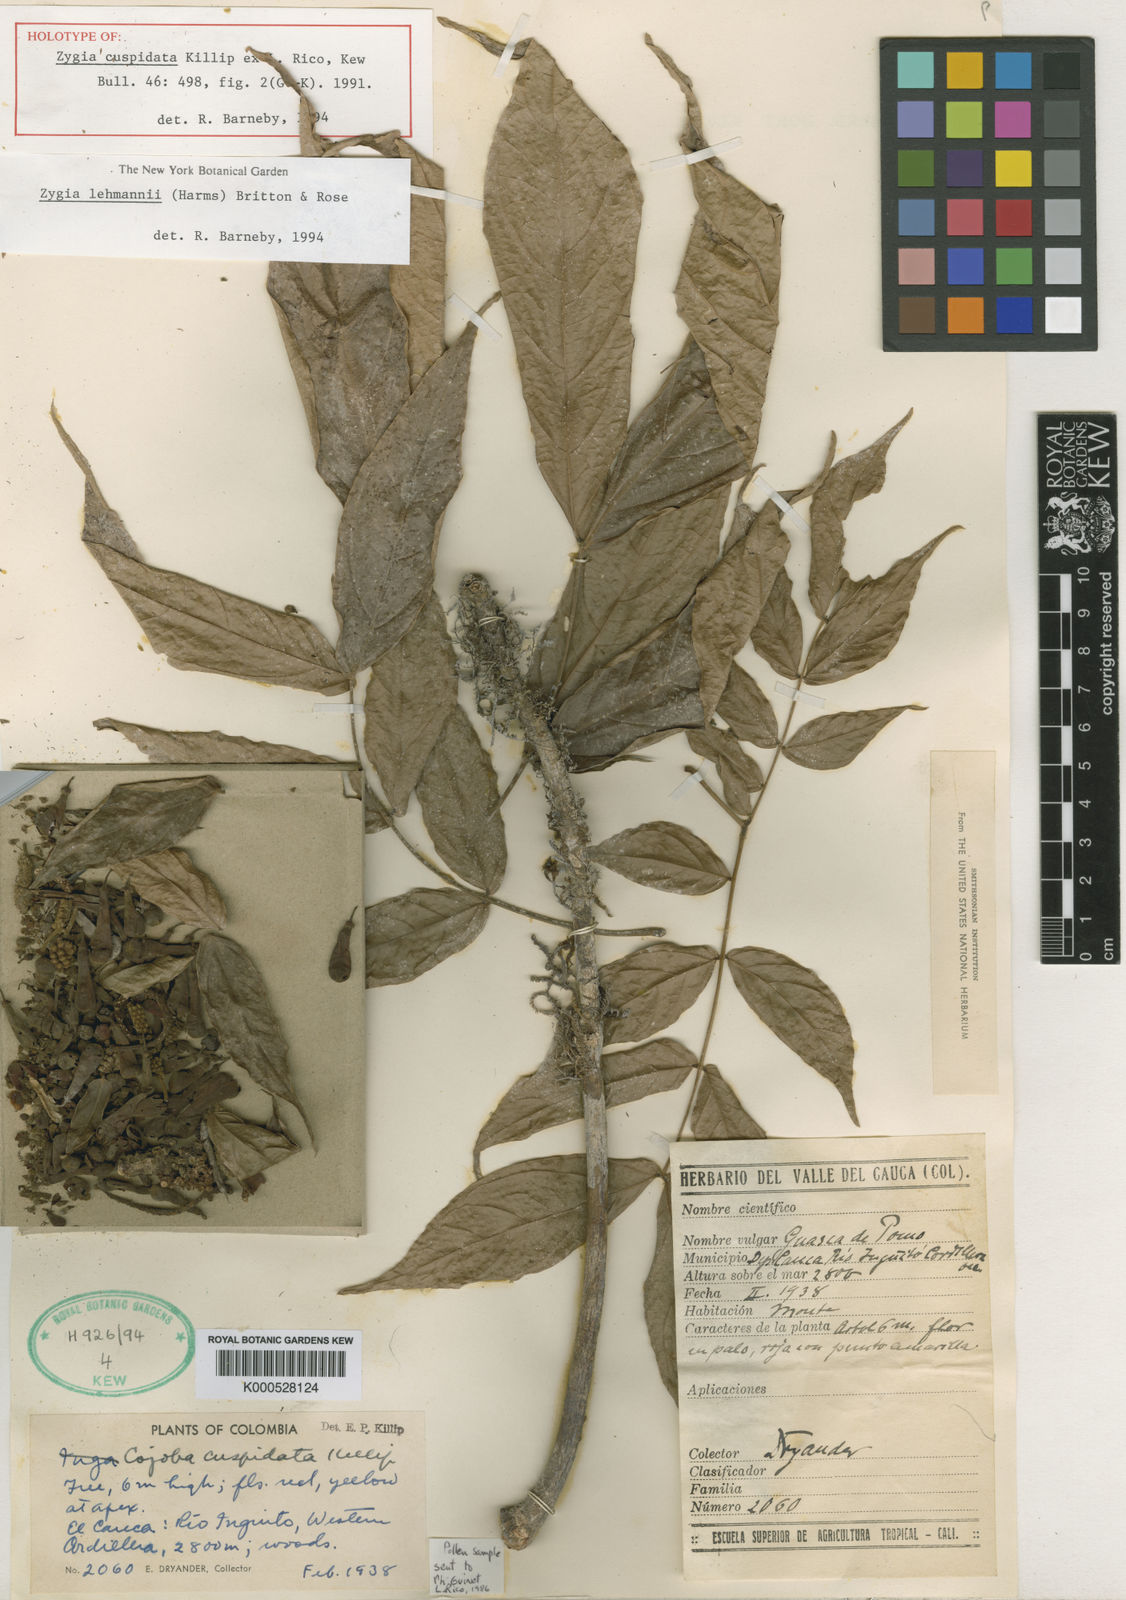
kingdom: Plantae
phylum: Tracheophyta
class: Magnoliopsida
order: Fabales
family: Fabaceae
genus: Zygia
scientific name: Zygia cuspidata
